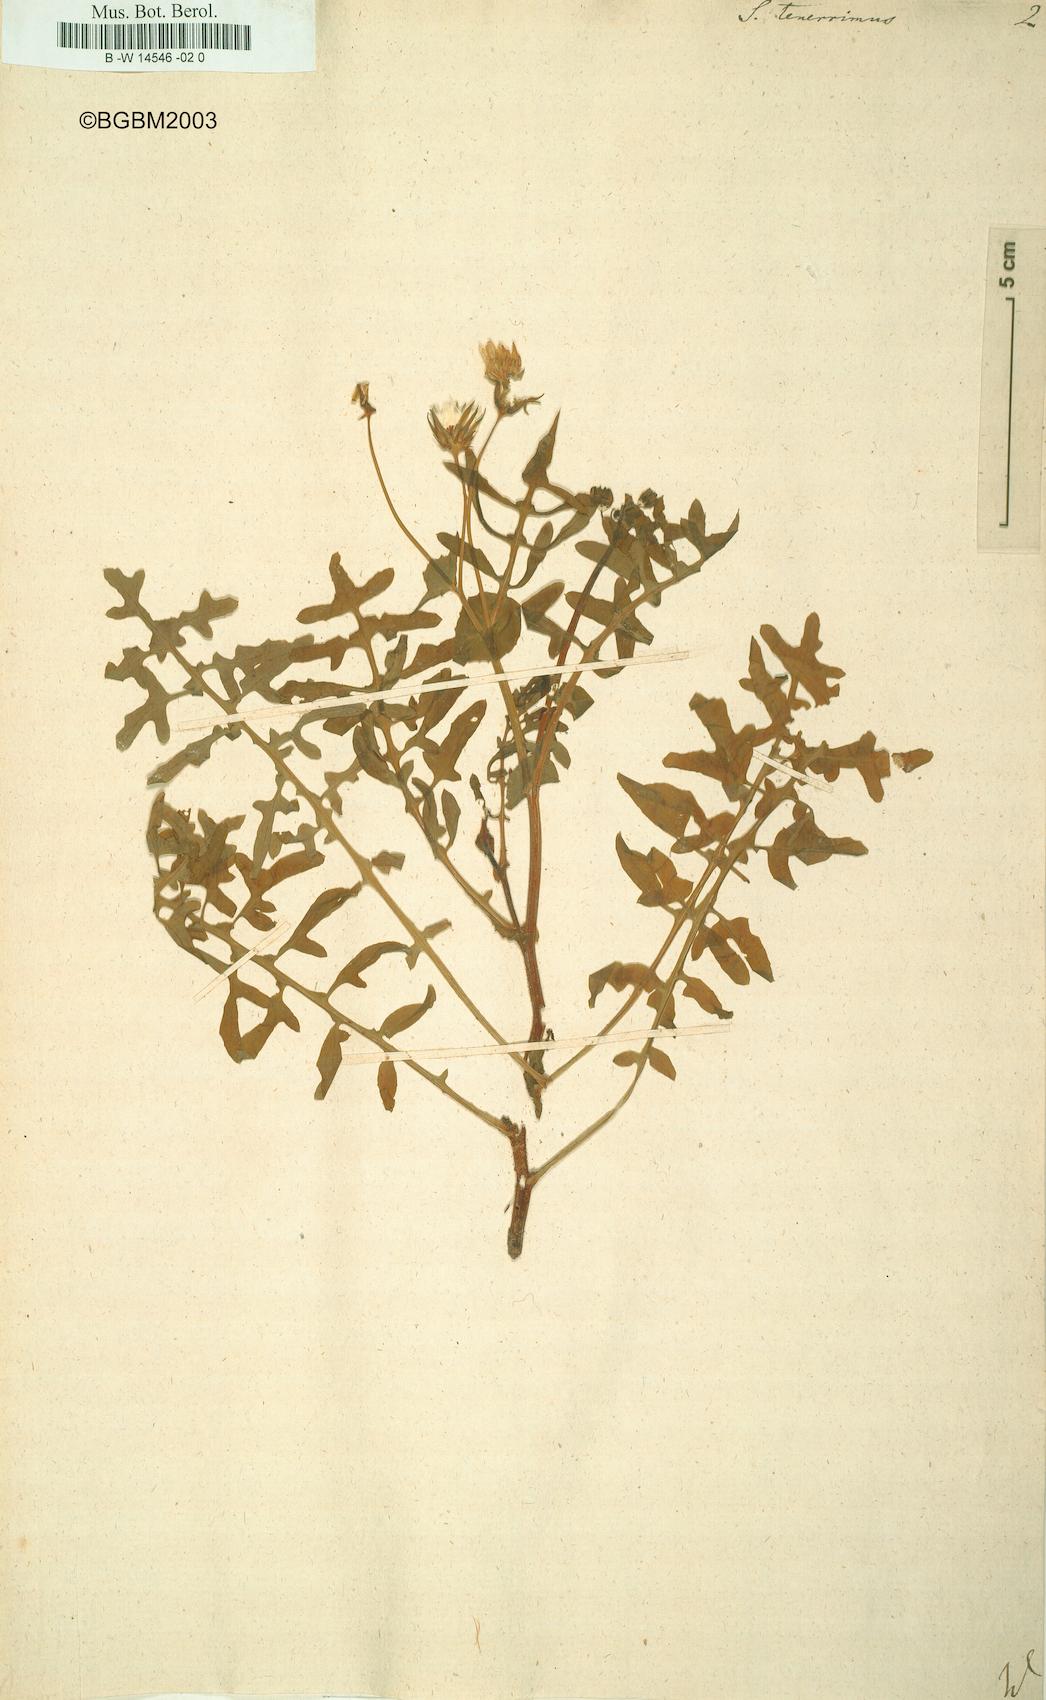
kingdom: Plantae
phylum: Tracheophyta
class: Magnoliopsida
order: Asterales
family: Asteraceae
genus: Sonchus
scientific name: Sonchus tenerrimus
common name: Clammy sowthistle
